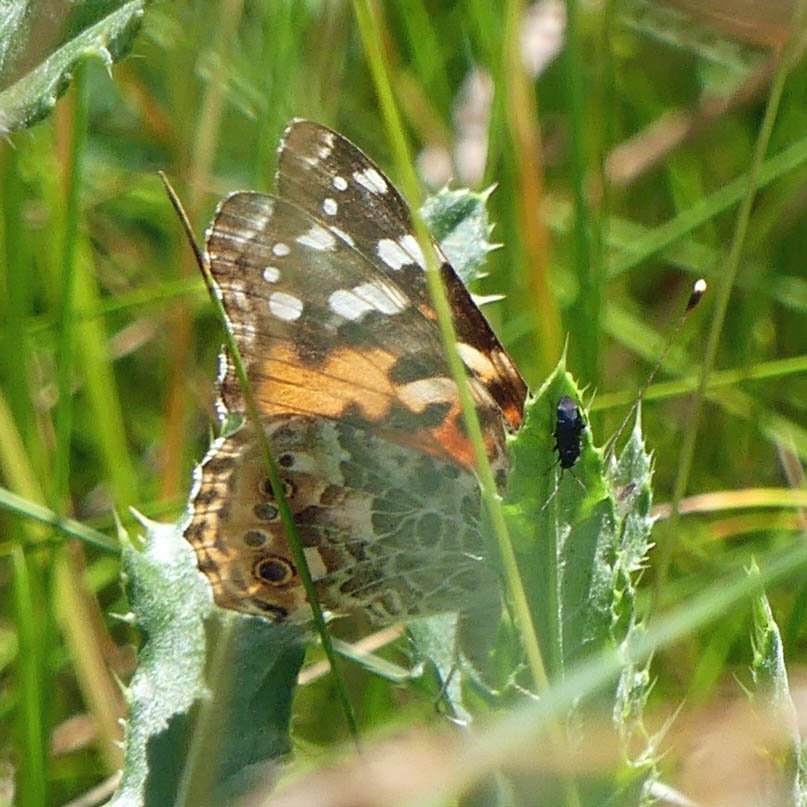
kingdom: Animalia
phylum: Arthropoda
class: Insecta
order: Lepidoptera
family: Nymphalidae
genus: Vanessa
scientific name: Vanessa cardui
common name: Painted Lady
